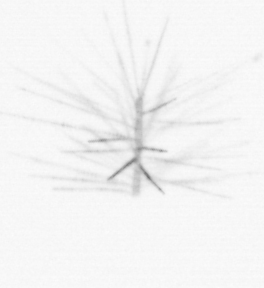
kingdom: Chromista
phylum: Ochrophyta
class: Bacillariophyceae
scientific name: Bacillariophyceae
